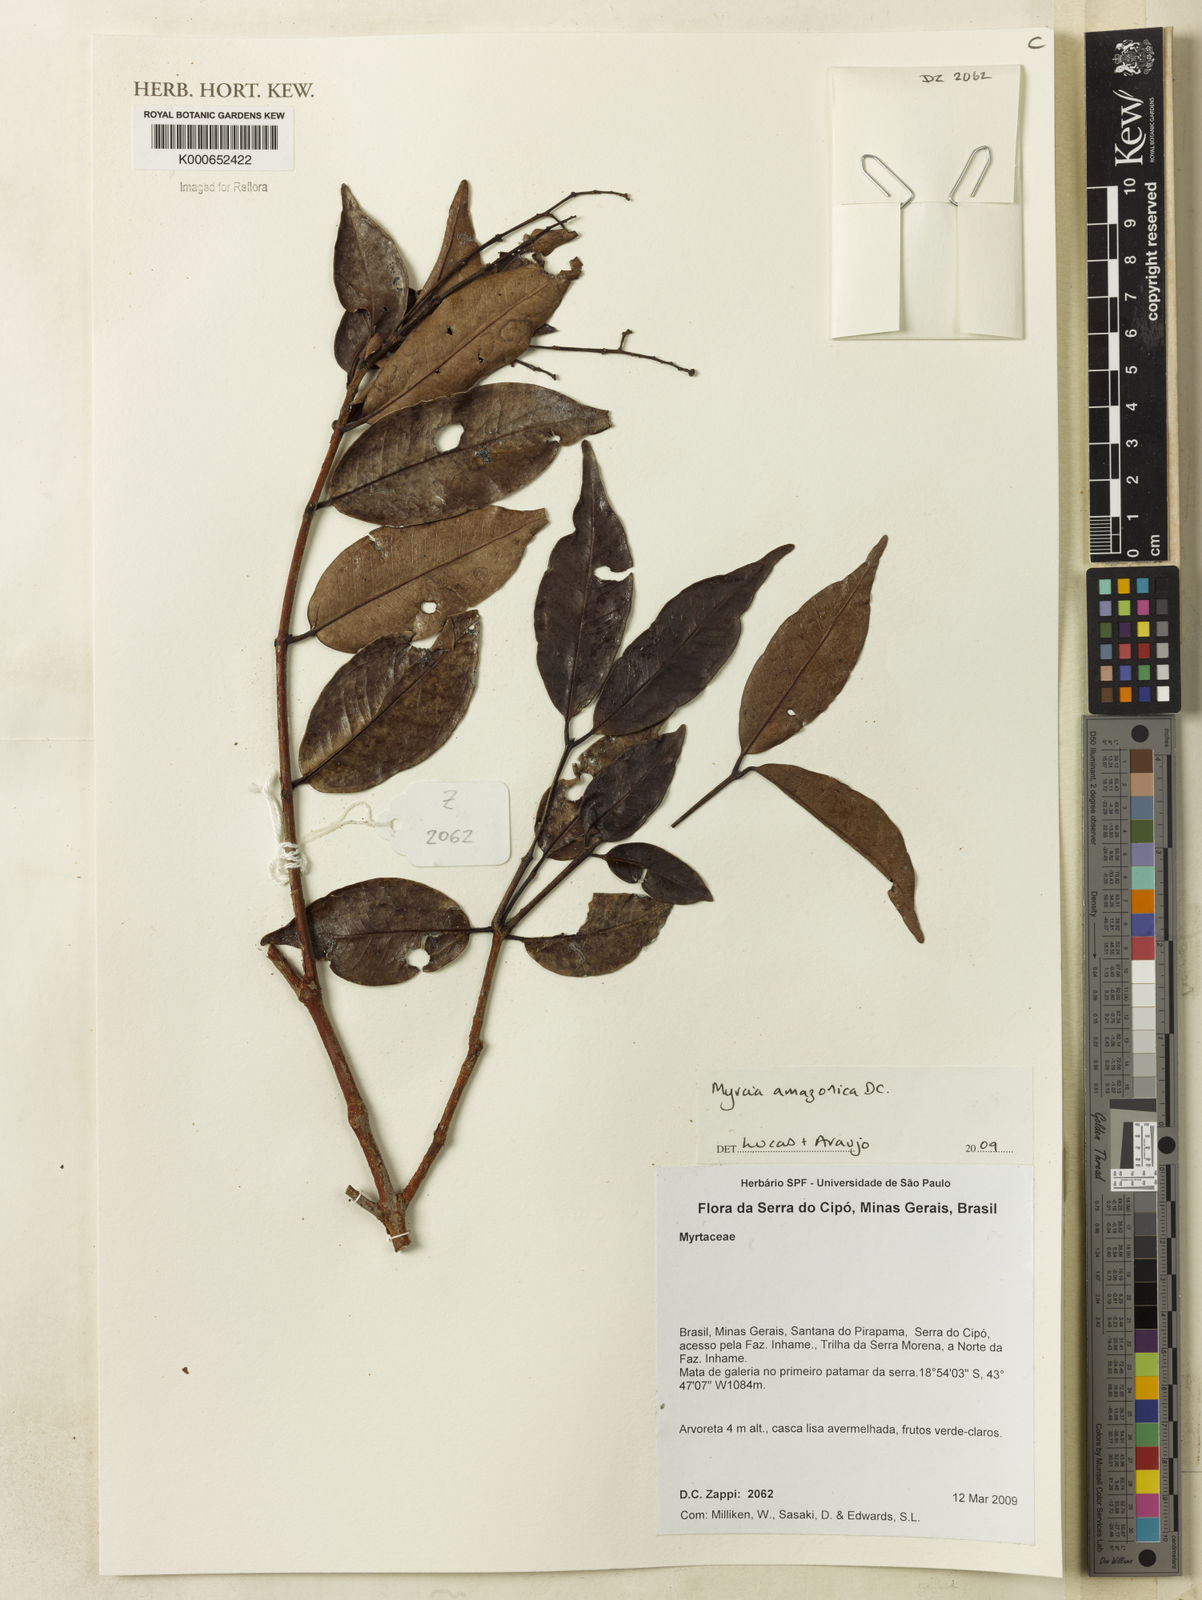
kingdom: Plantae
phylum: Tracheophyta
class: Magnoliopsida
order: Myrtales
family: Myrtaceae
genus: Myrcia
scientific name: Myrcia amazonica
